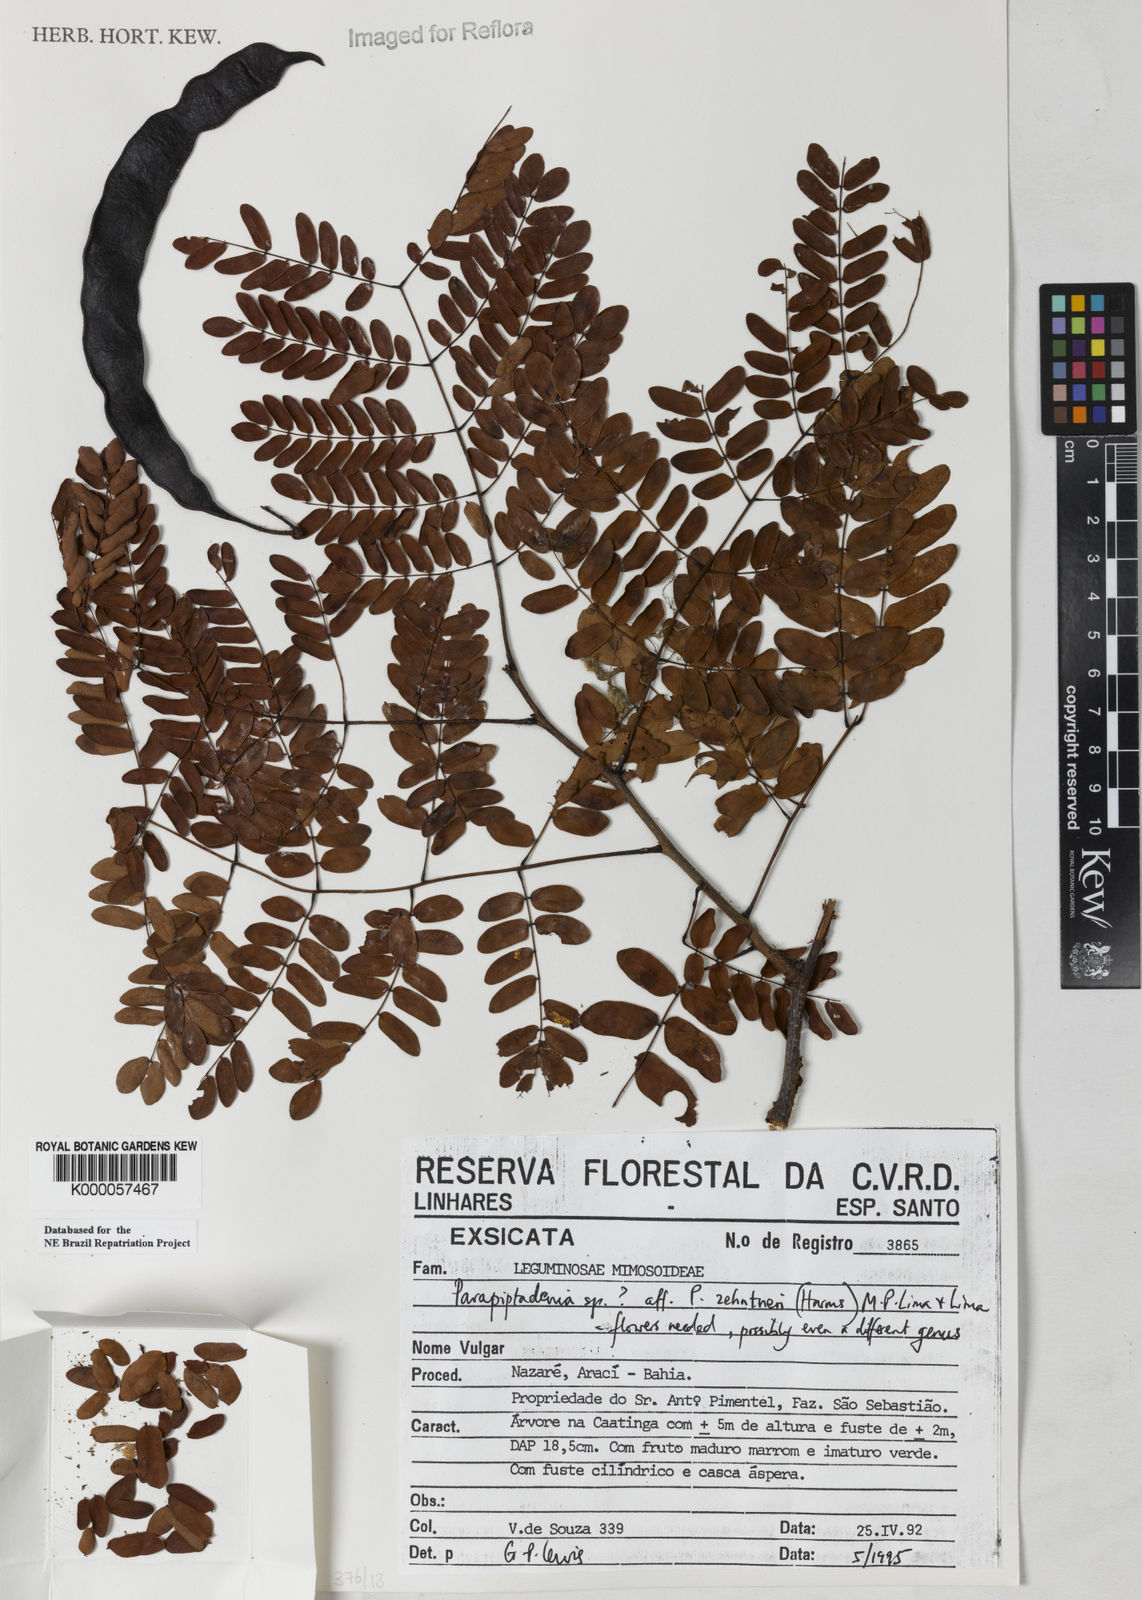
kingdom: Plantae
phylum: Tracheophyta
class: Magnoliopsida
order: Fabales
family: Fabaceae
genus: Parapiptadenia
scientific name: Parapiptadenia zehntneri
